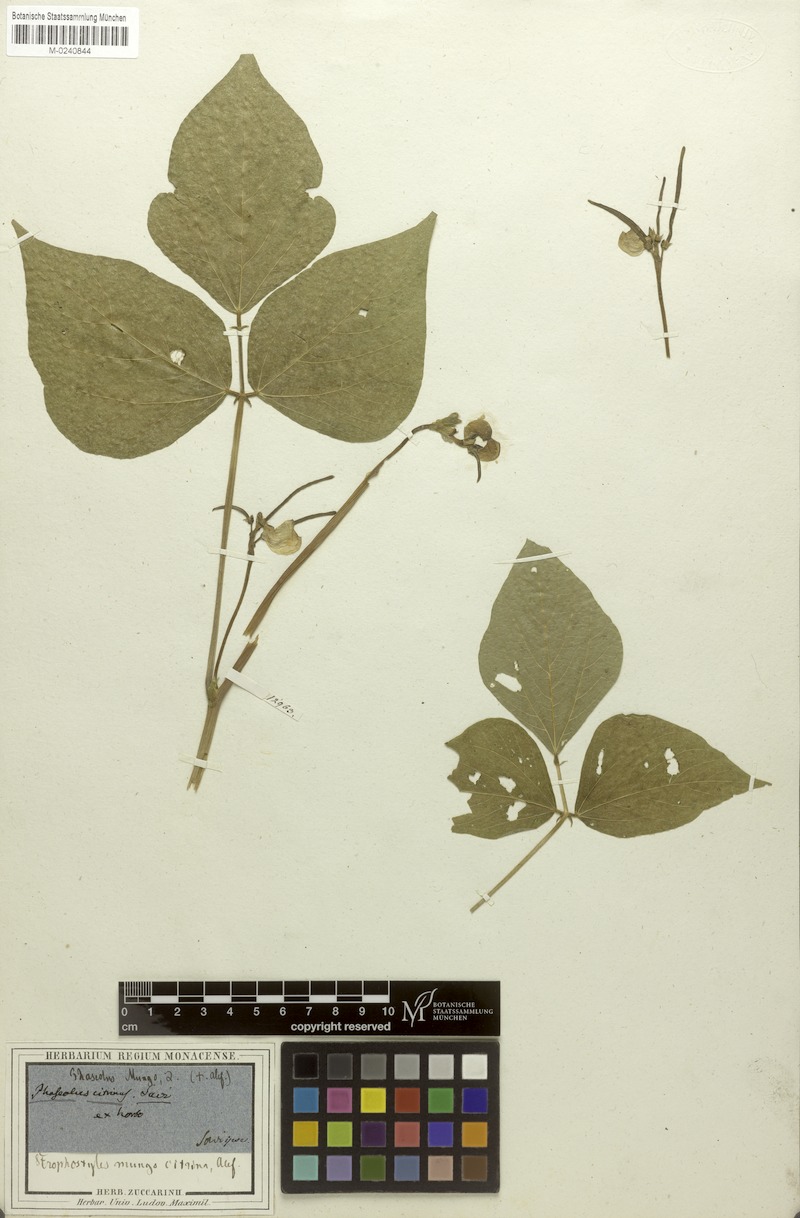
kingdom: Plantae
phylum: Tracheophyta
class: Magnoliopsida
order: Fabales
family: Fabaceae
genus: Vigna
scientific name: Vigna radiata
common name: Mung-bean
